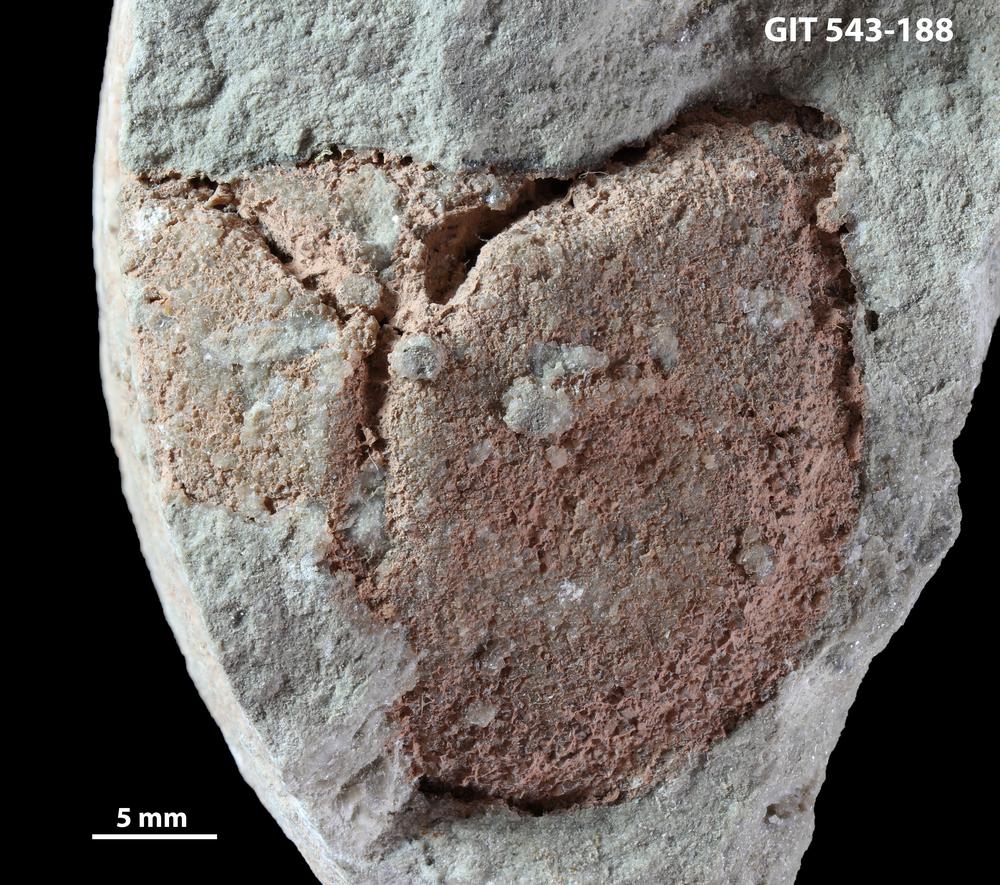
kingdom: Animalia
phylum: Brachiopoda
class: Rhynchonellata
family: Clitambonitidae
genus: Clinambon
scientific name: Clinambon
